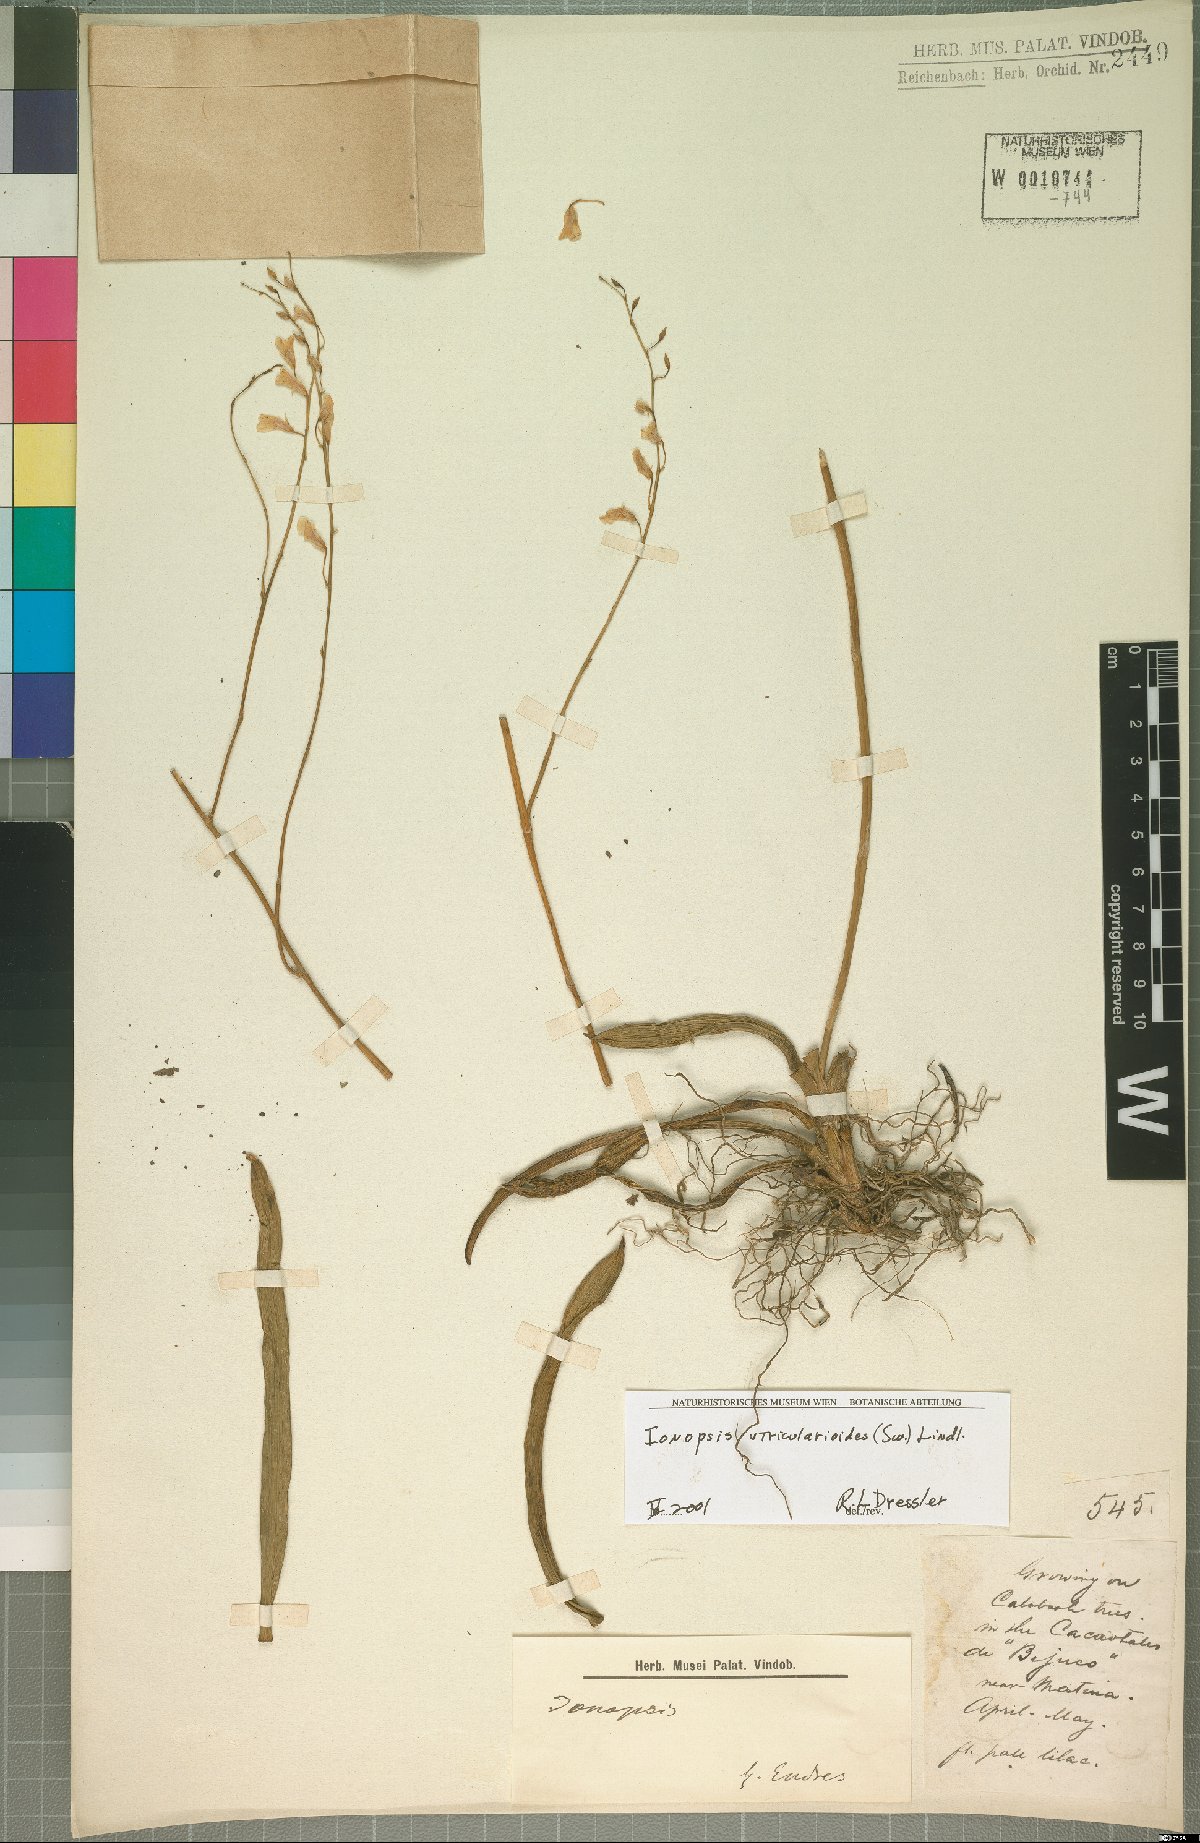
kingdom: Plantae
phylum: Tracheophyta
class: Liliopsida
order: Asparagales
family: Orchidaceae
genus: Ionopsis
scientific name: Ionopsis utricularioides
